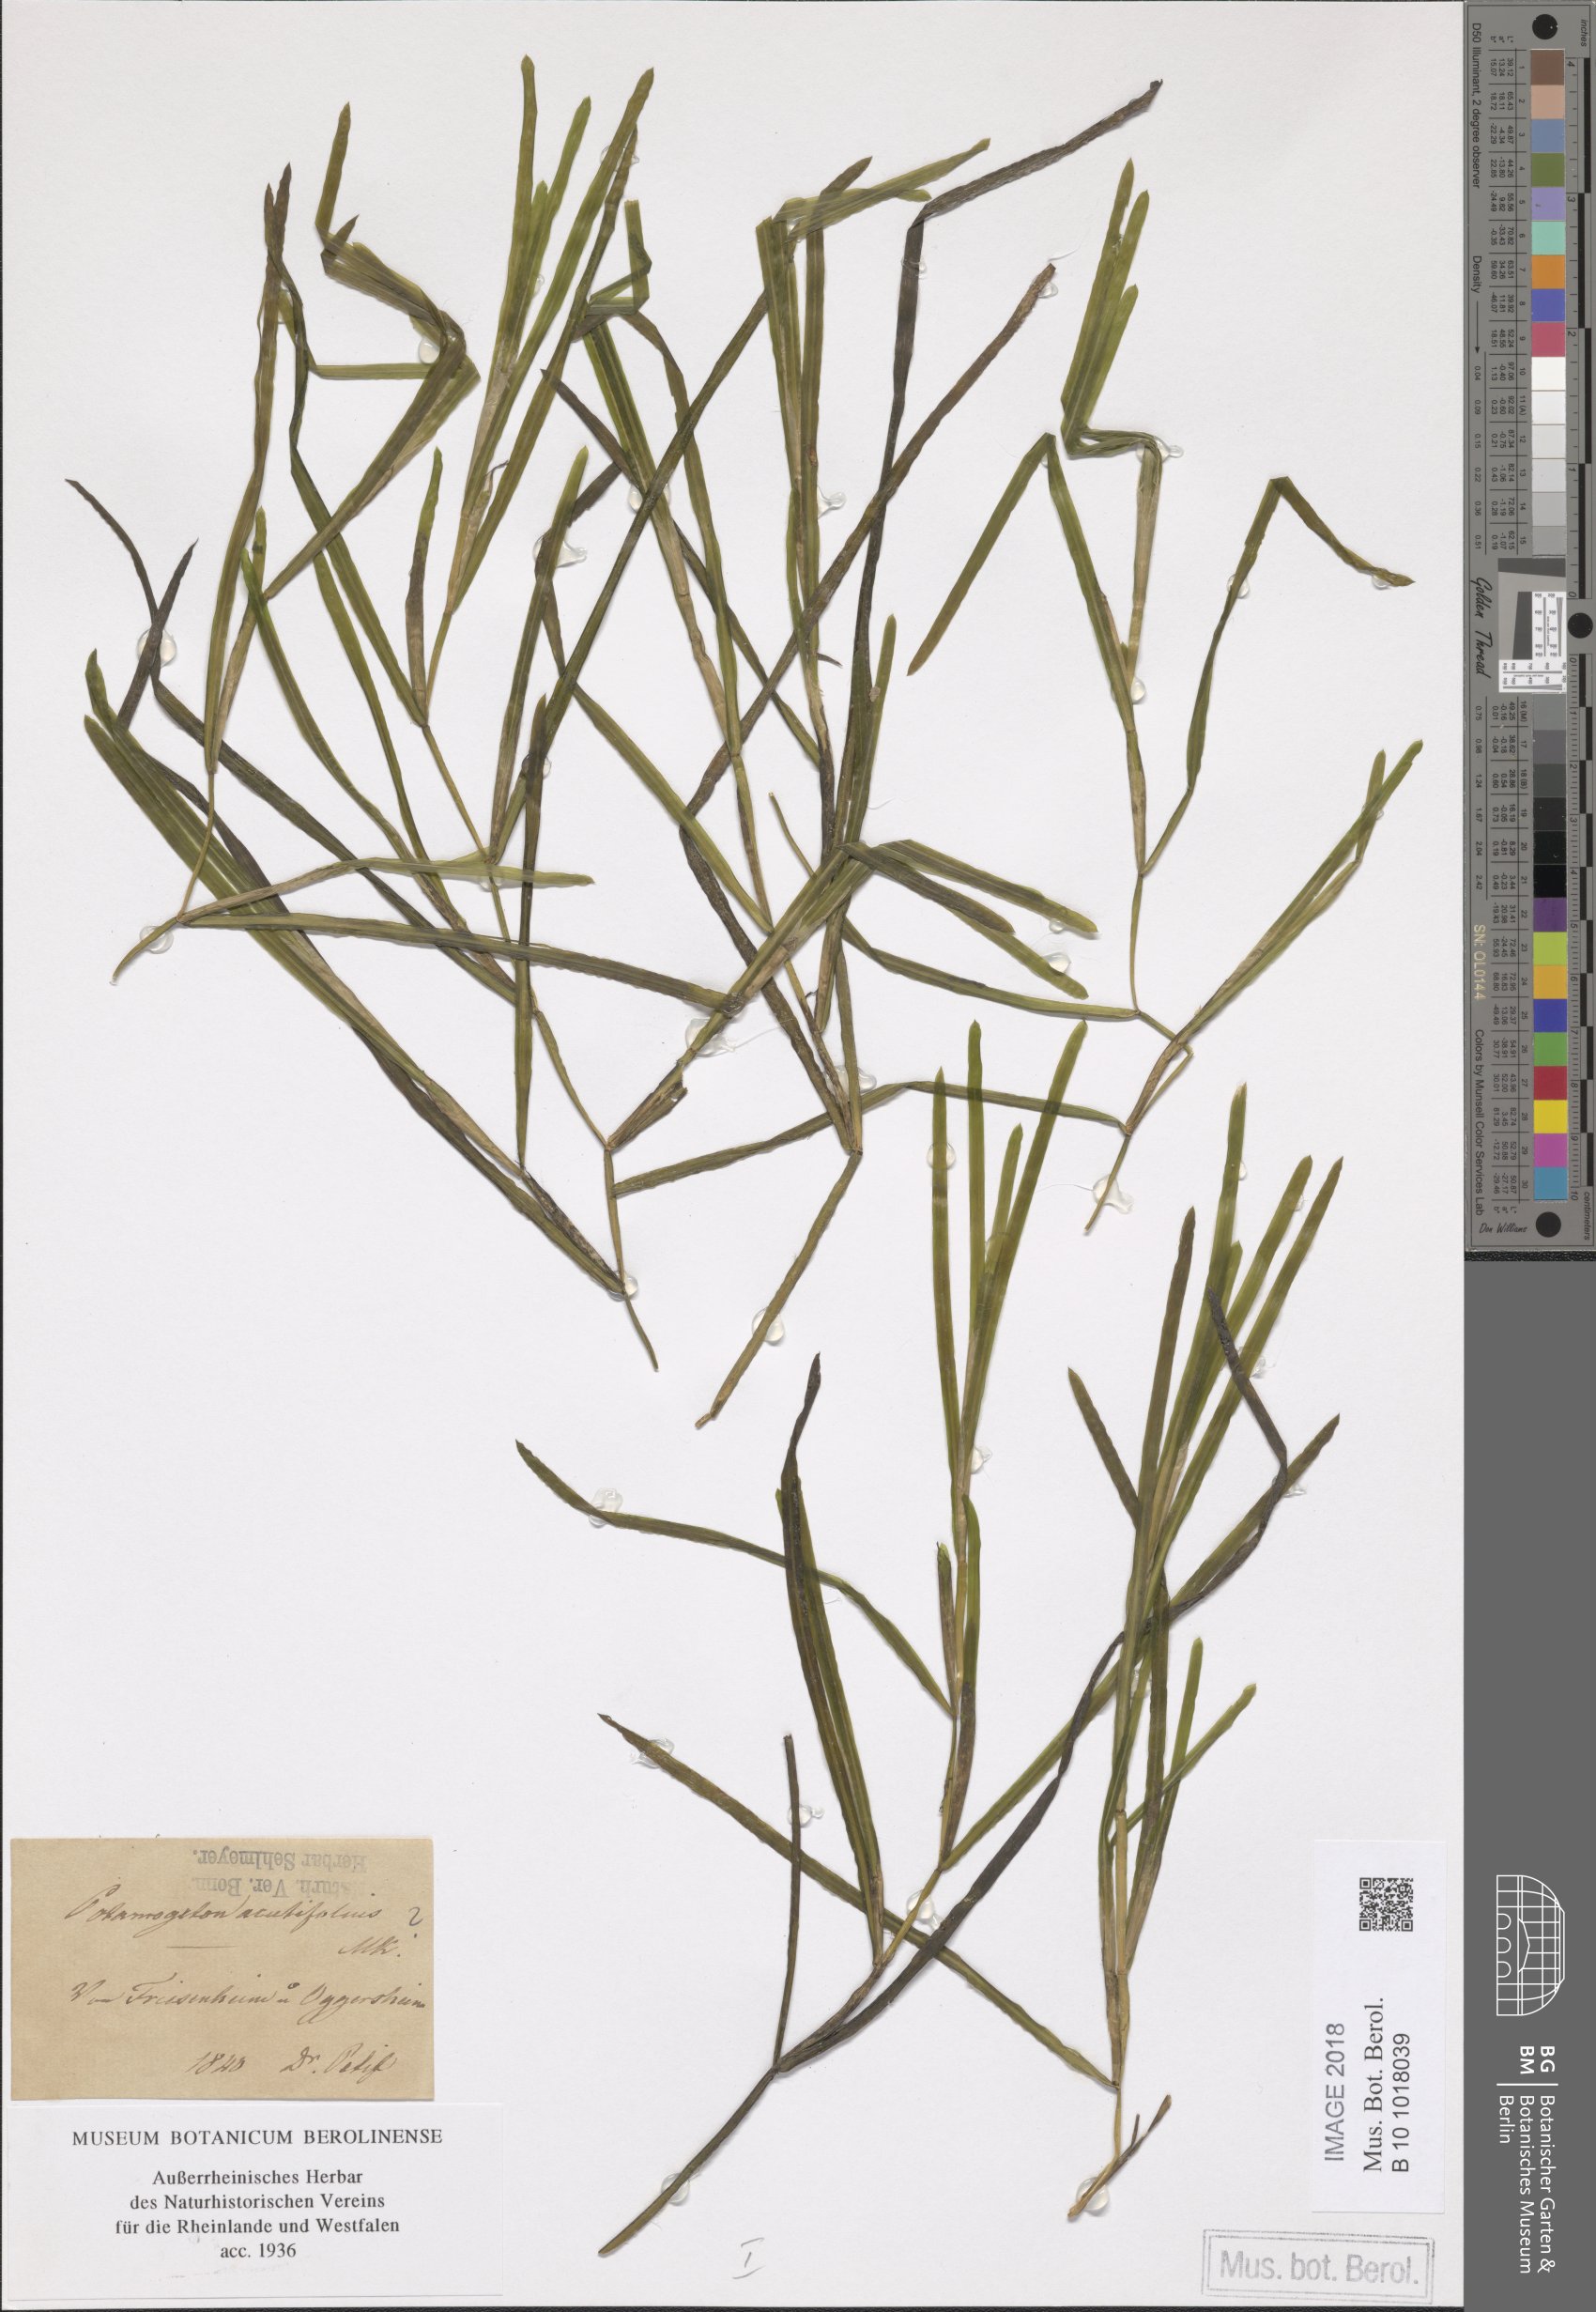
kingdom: Plantae
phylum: Tracheophyta
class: Liliopsida
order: Alismatales
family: Potamogetonaceae
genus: Potamogeton
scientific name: Potamogeton compressus
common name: Grass-wrack pondweed
